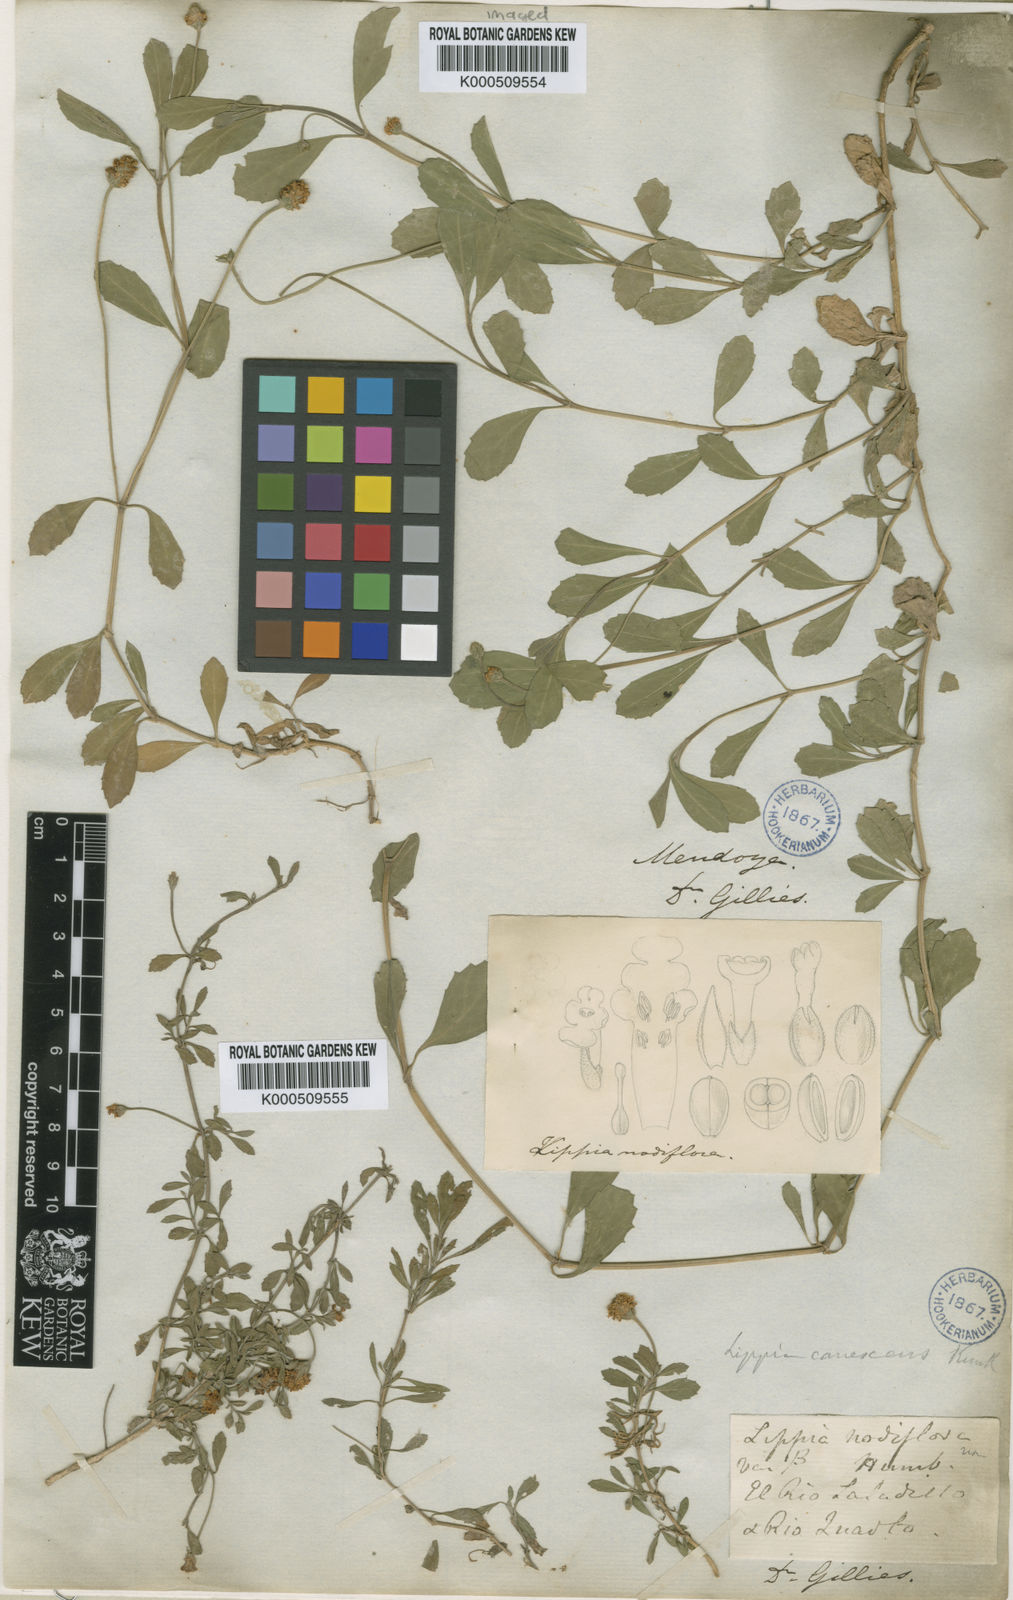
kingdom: Plantae
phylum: Tracheophyta
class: Magnoliopsida
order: Lamiales
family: Verbenaceae
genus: Phyla
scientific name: Phyla
